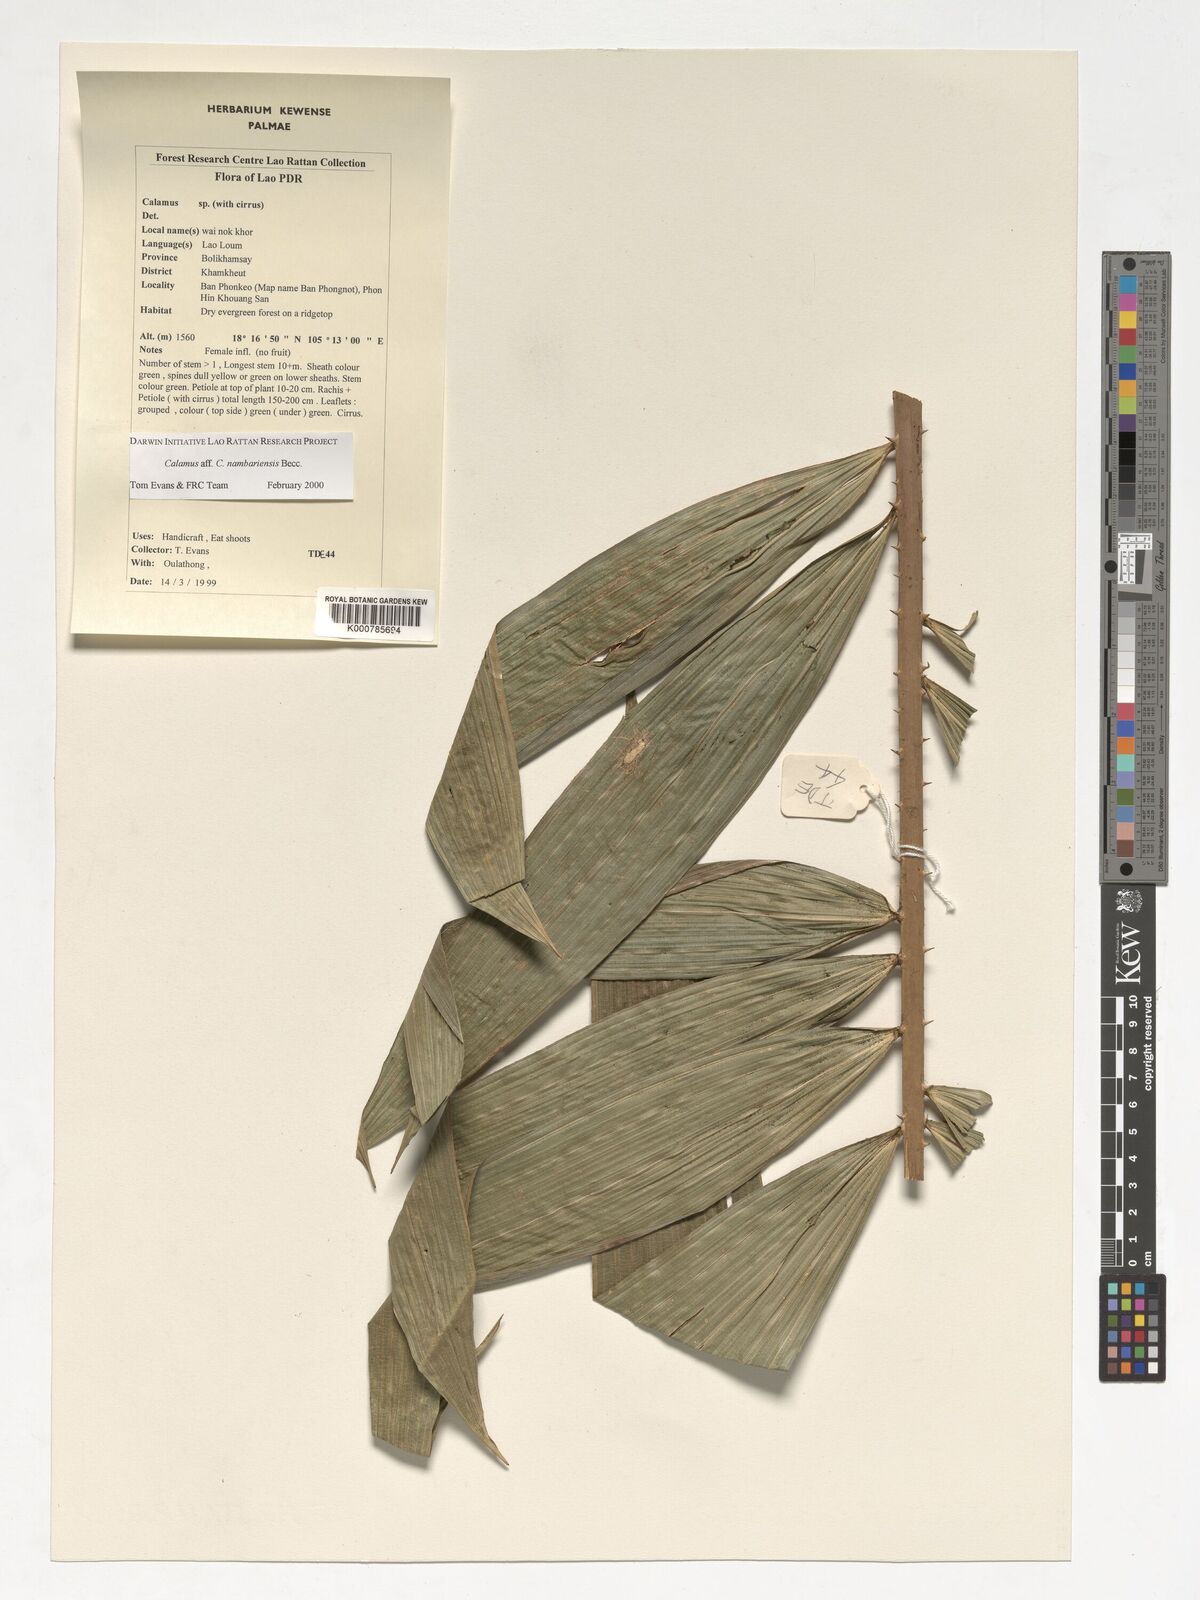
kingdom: Plantae
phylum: Tracheophyta
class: Liliopsida
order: Arecales
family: Arecaceae
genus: Calamus
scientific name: Calamus inermis
